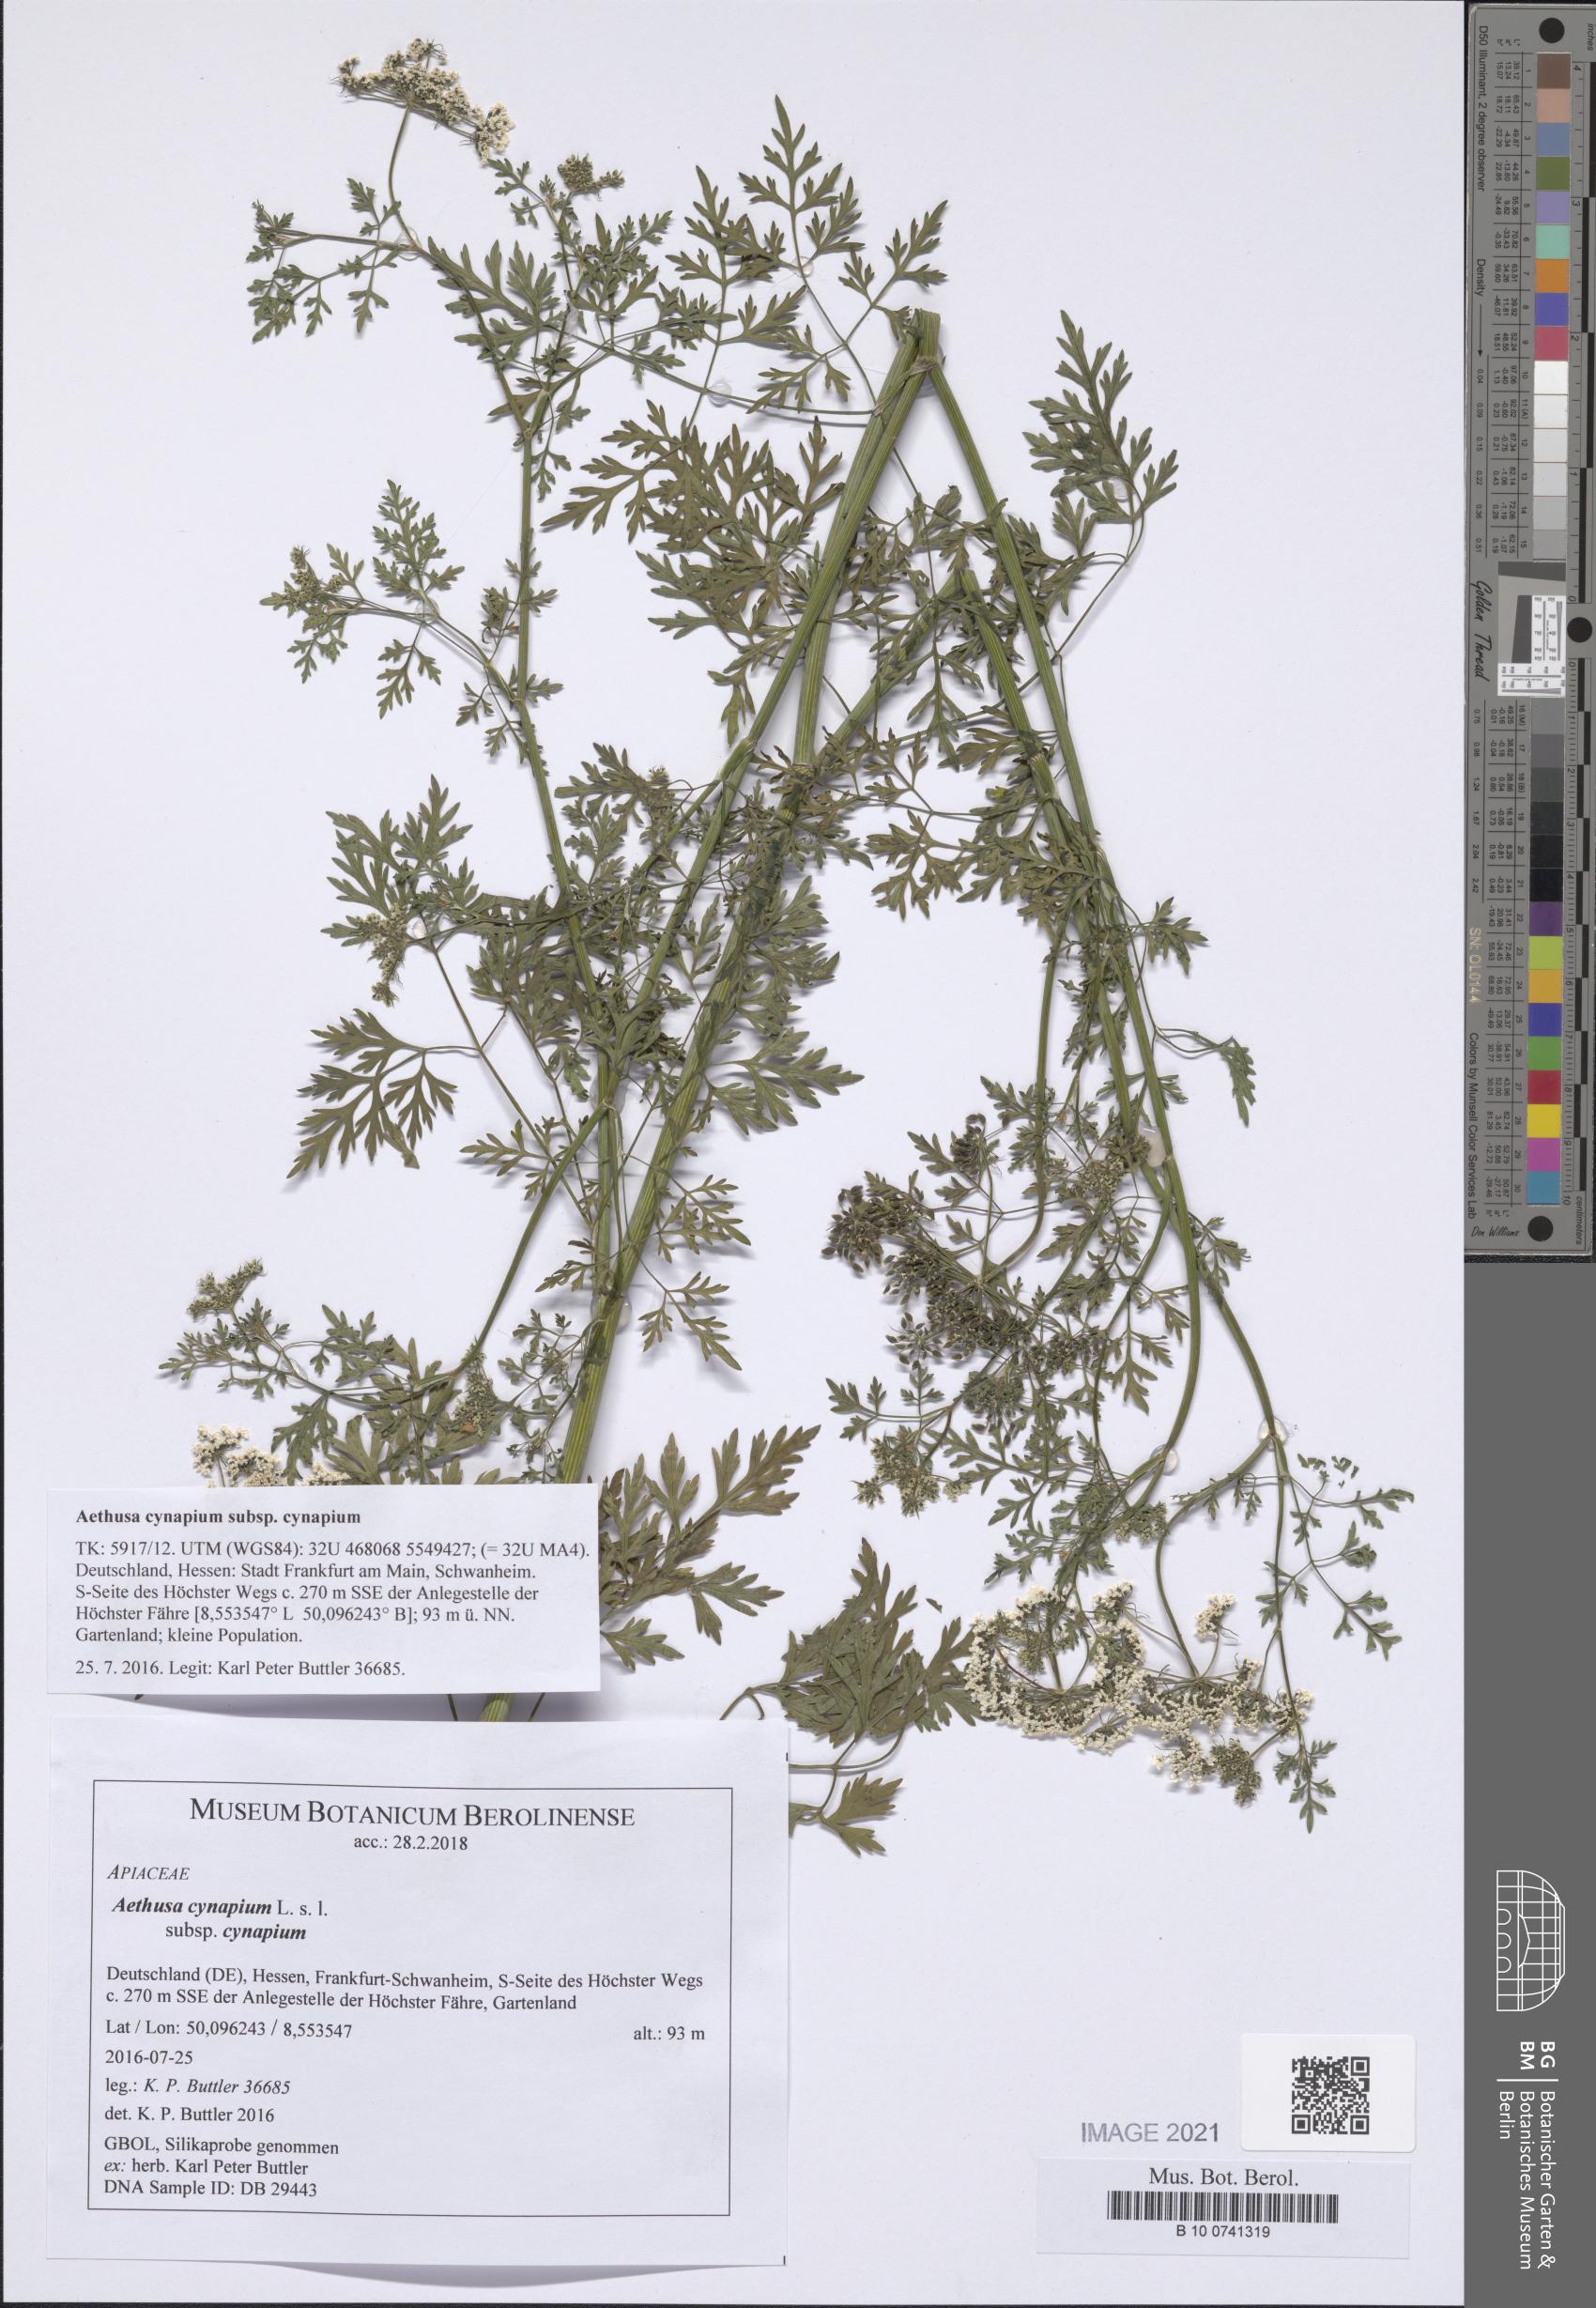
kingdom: Plantae
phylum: Tracheophyta
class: Magnoliopsida
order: Apiales
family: Apiaceae
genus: Aethusa
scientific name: Aethusa cynapium
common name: Fool's parsley
